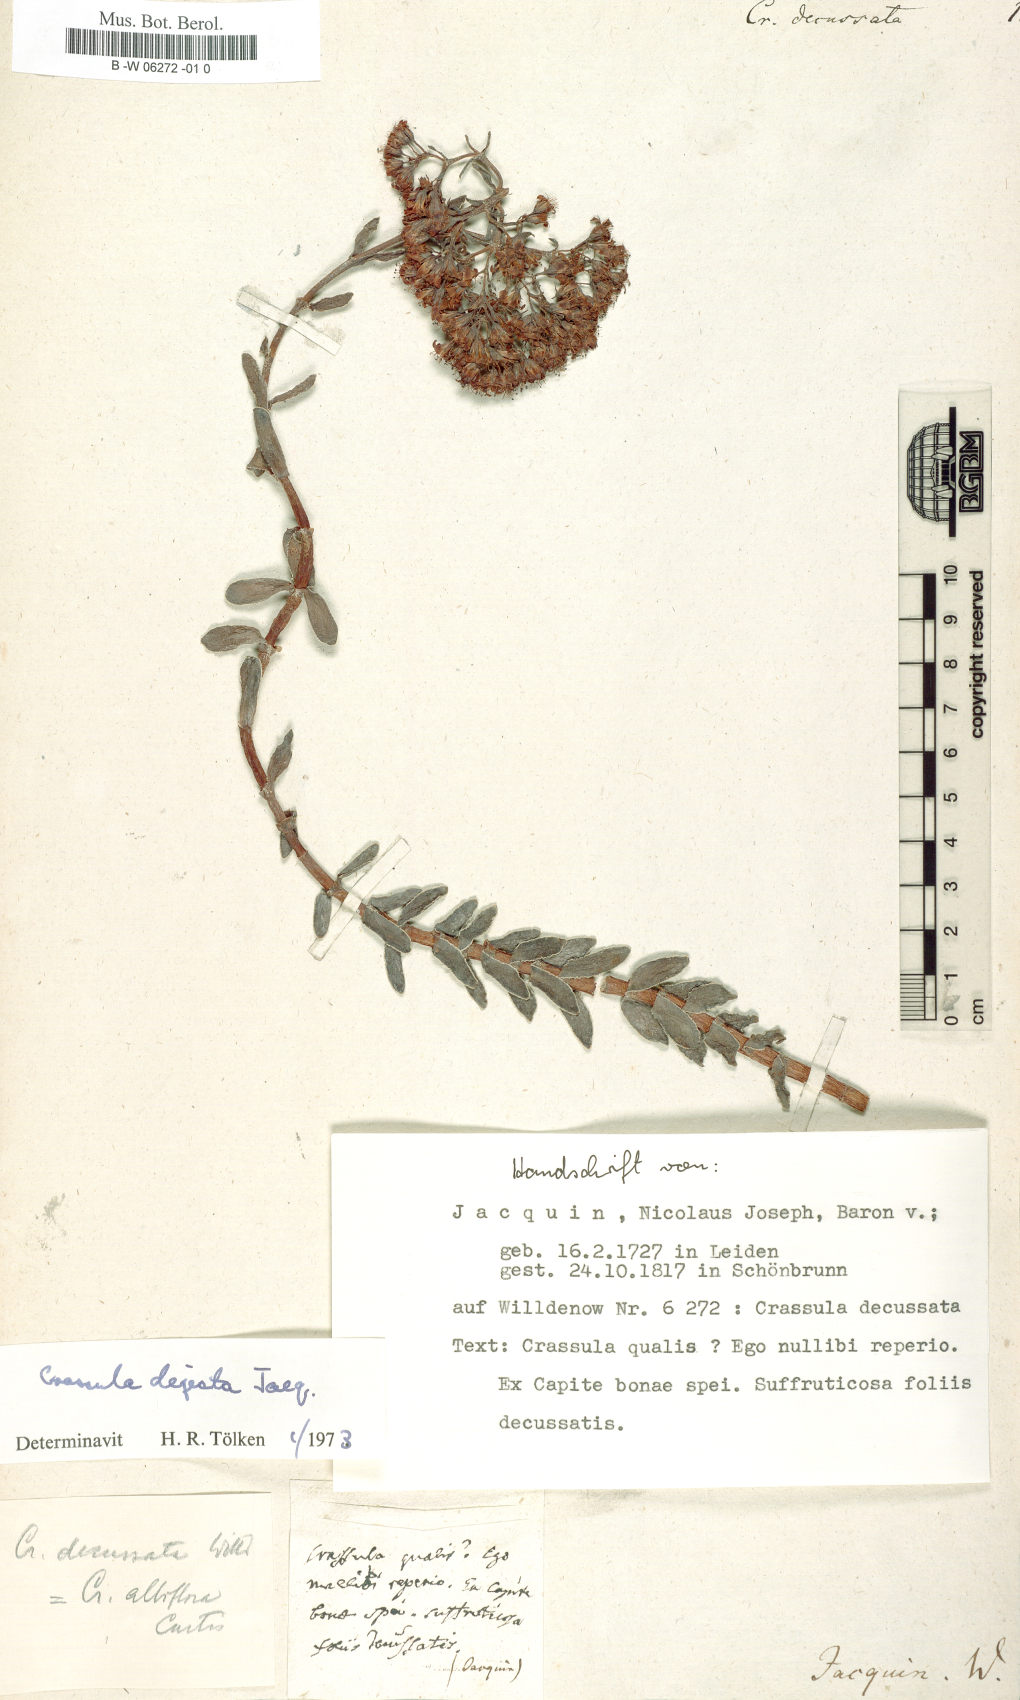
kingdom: Plantae
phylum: Tracheophyta
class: Magnoliopsida
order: Saxifragales
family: Crassulaceae
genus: Crassula
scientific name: Crassula
